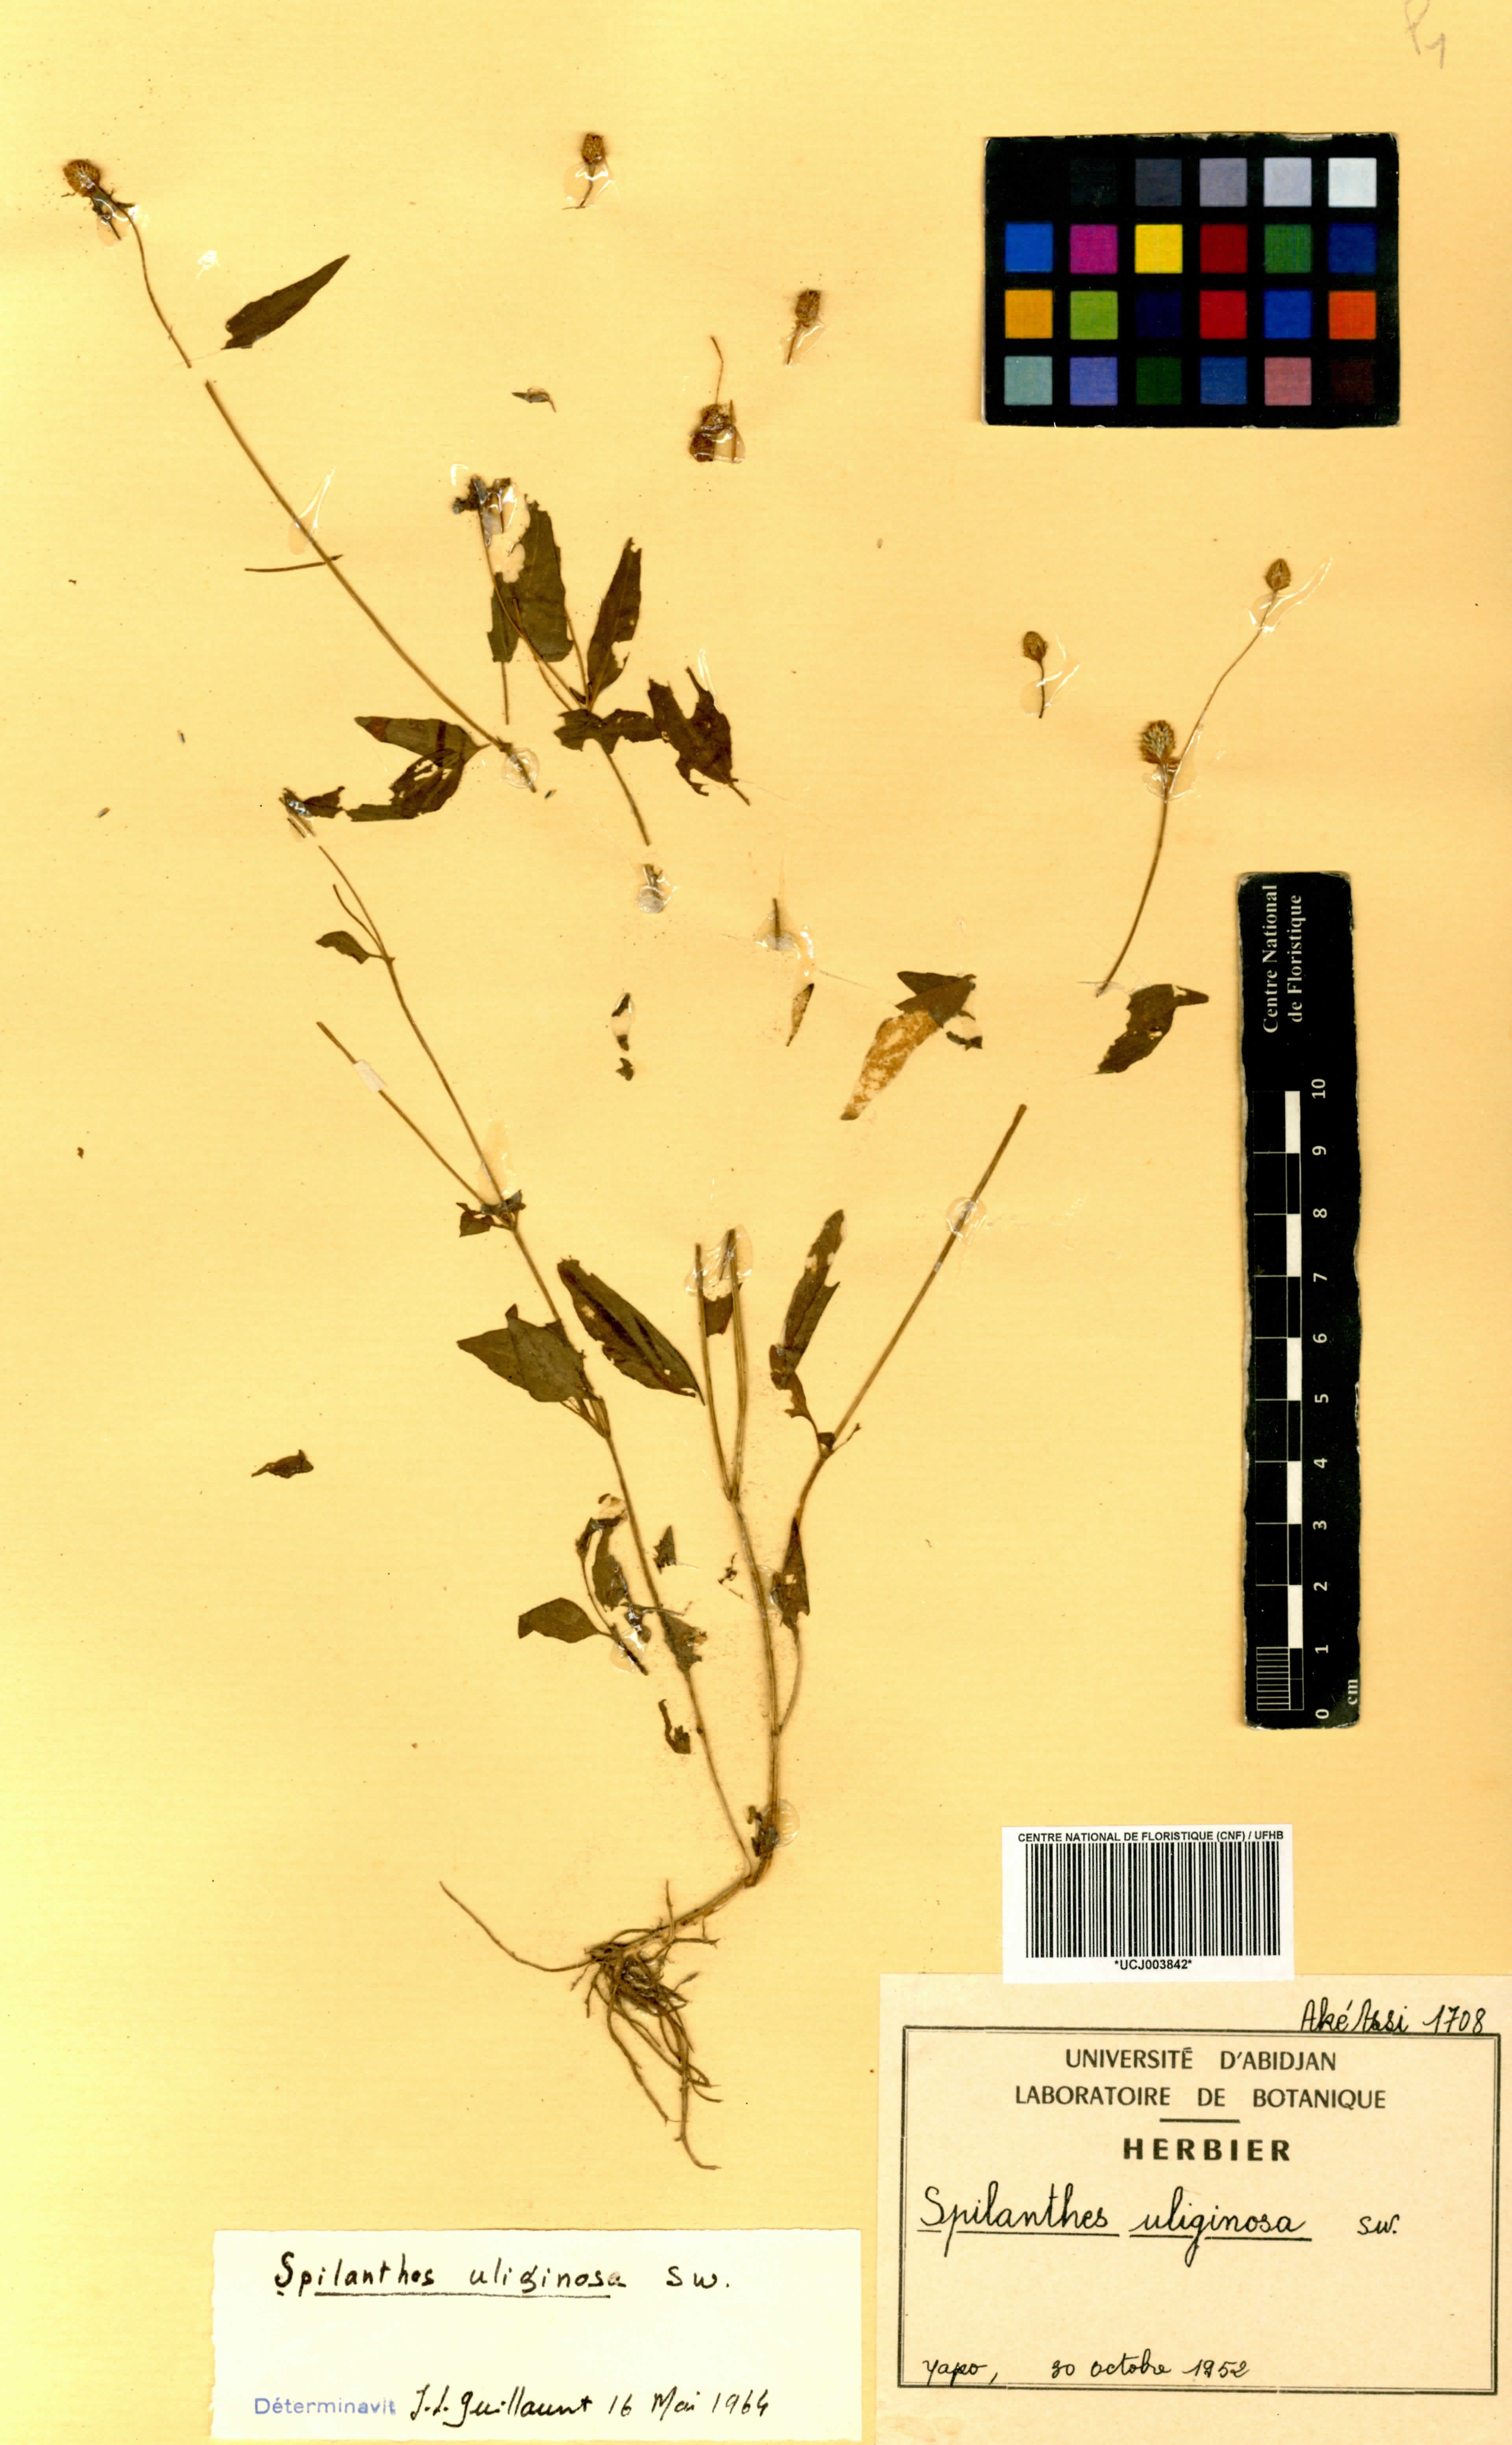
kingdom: Plantae
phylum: Tracheophyta
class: Magnoliopsida
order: Asterales
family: Asteraceae
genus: Acmella
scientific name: Acmella uliginosa
